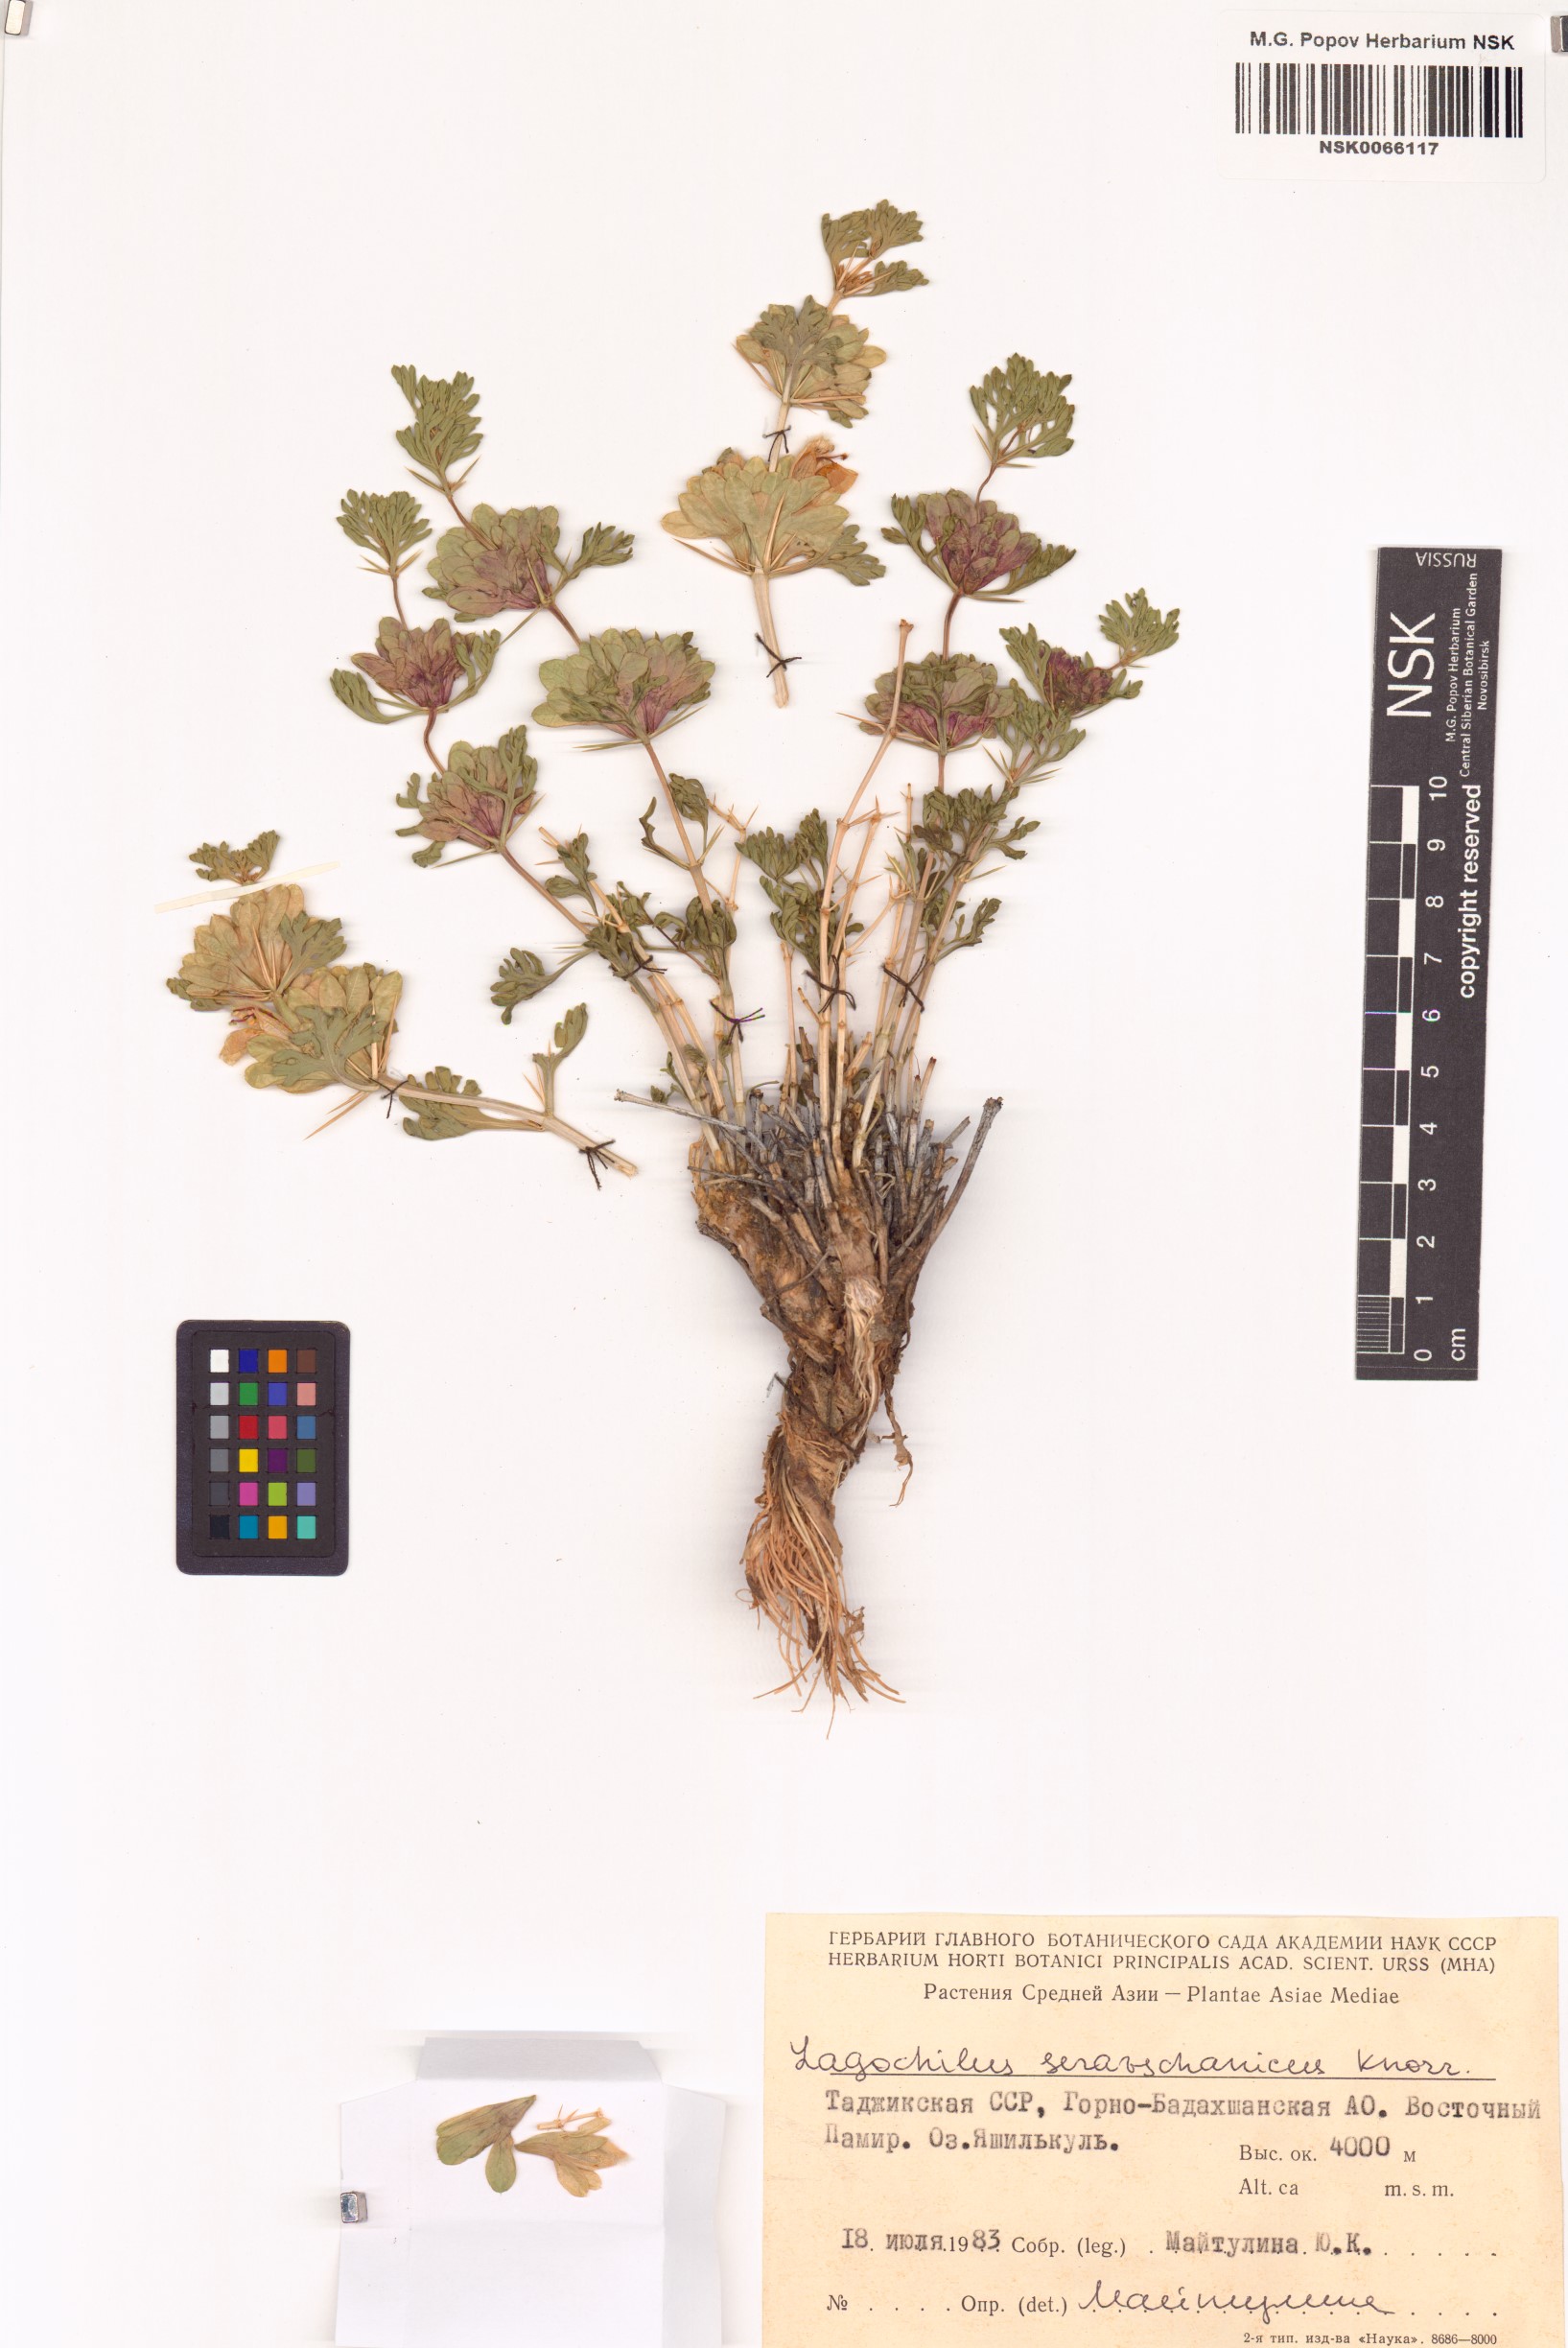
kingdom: Plantae
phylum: Tracheophyta
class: Magnoliopsida
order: Lamiales
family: Lamiaceae
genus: Lagochilus
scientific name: Lagochilus seravschanicus
